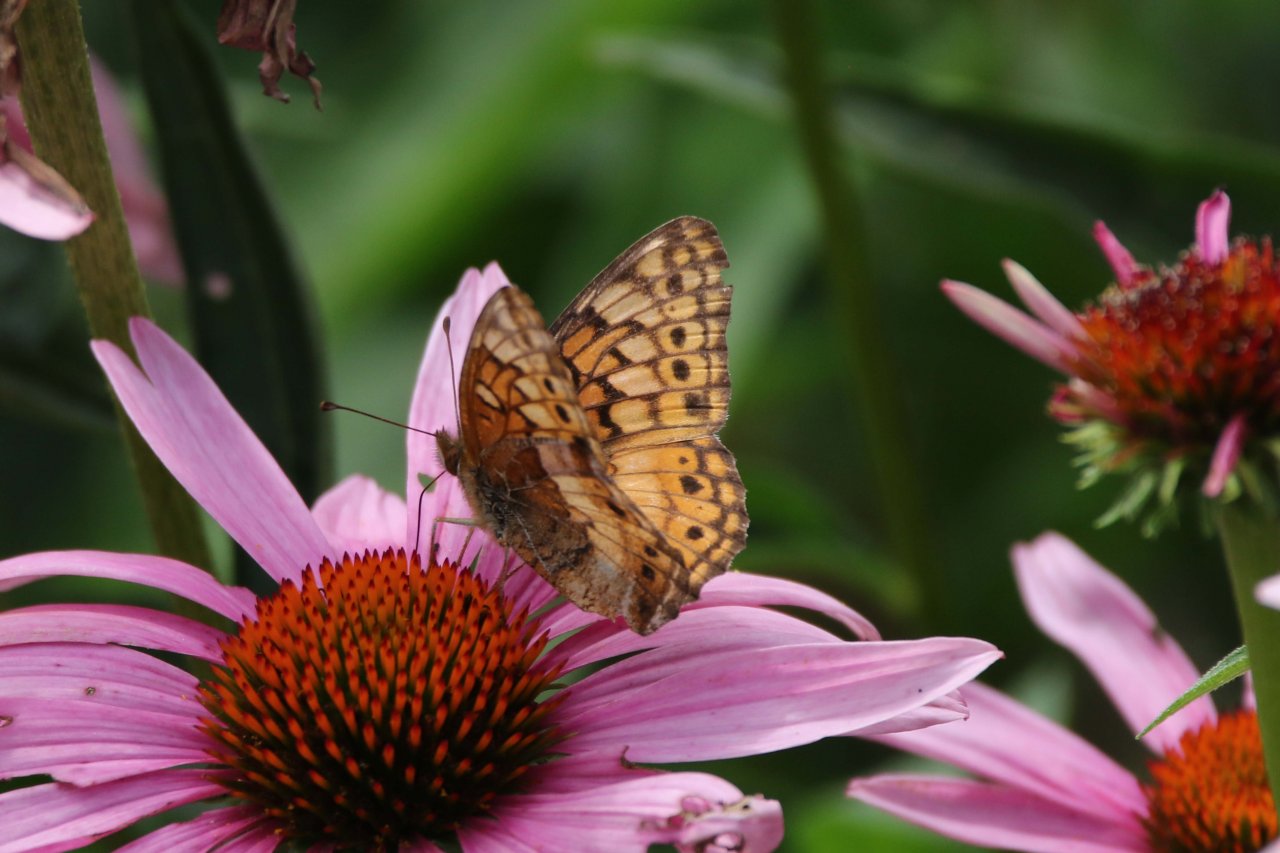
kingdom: Animalia
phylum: Arthropoda
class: Insecta
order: Lepidoptera
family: Nymphalidae
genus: Euptoieta
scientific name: Euptoieta claudia
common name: Variegated Fritillary
